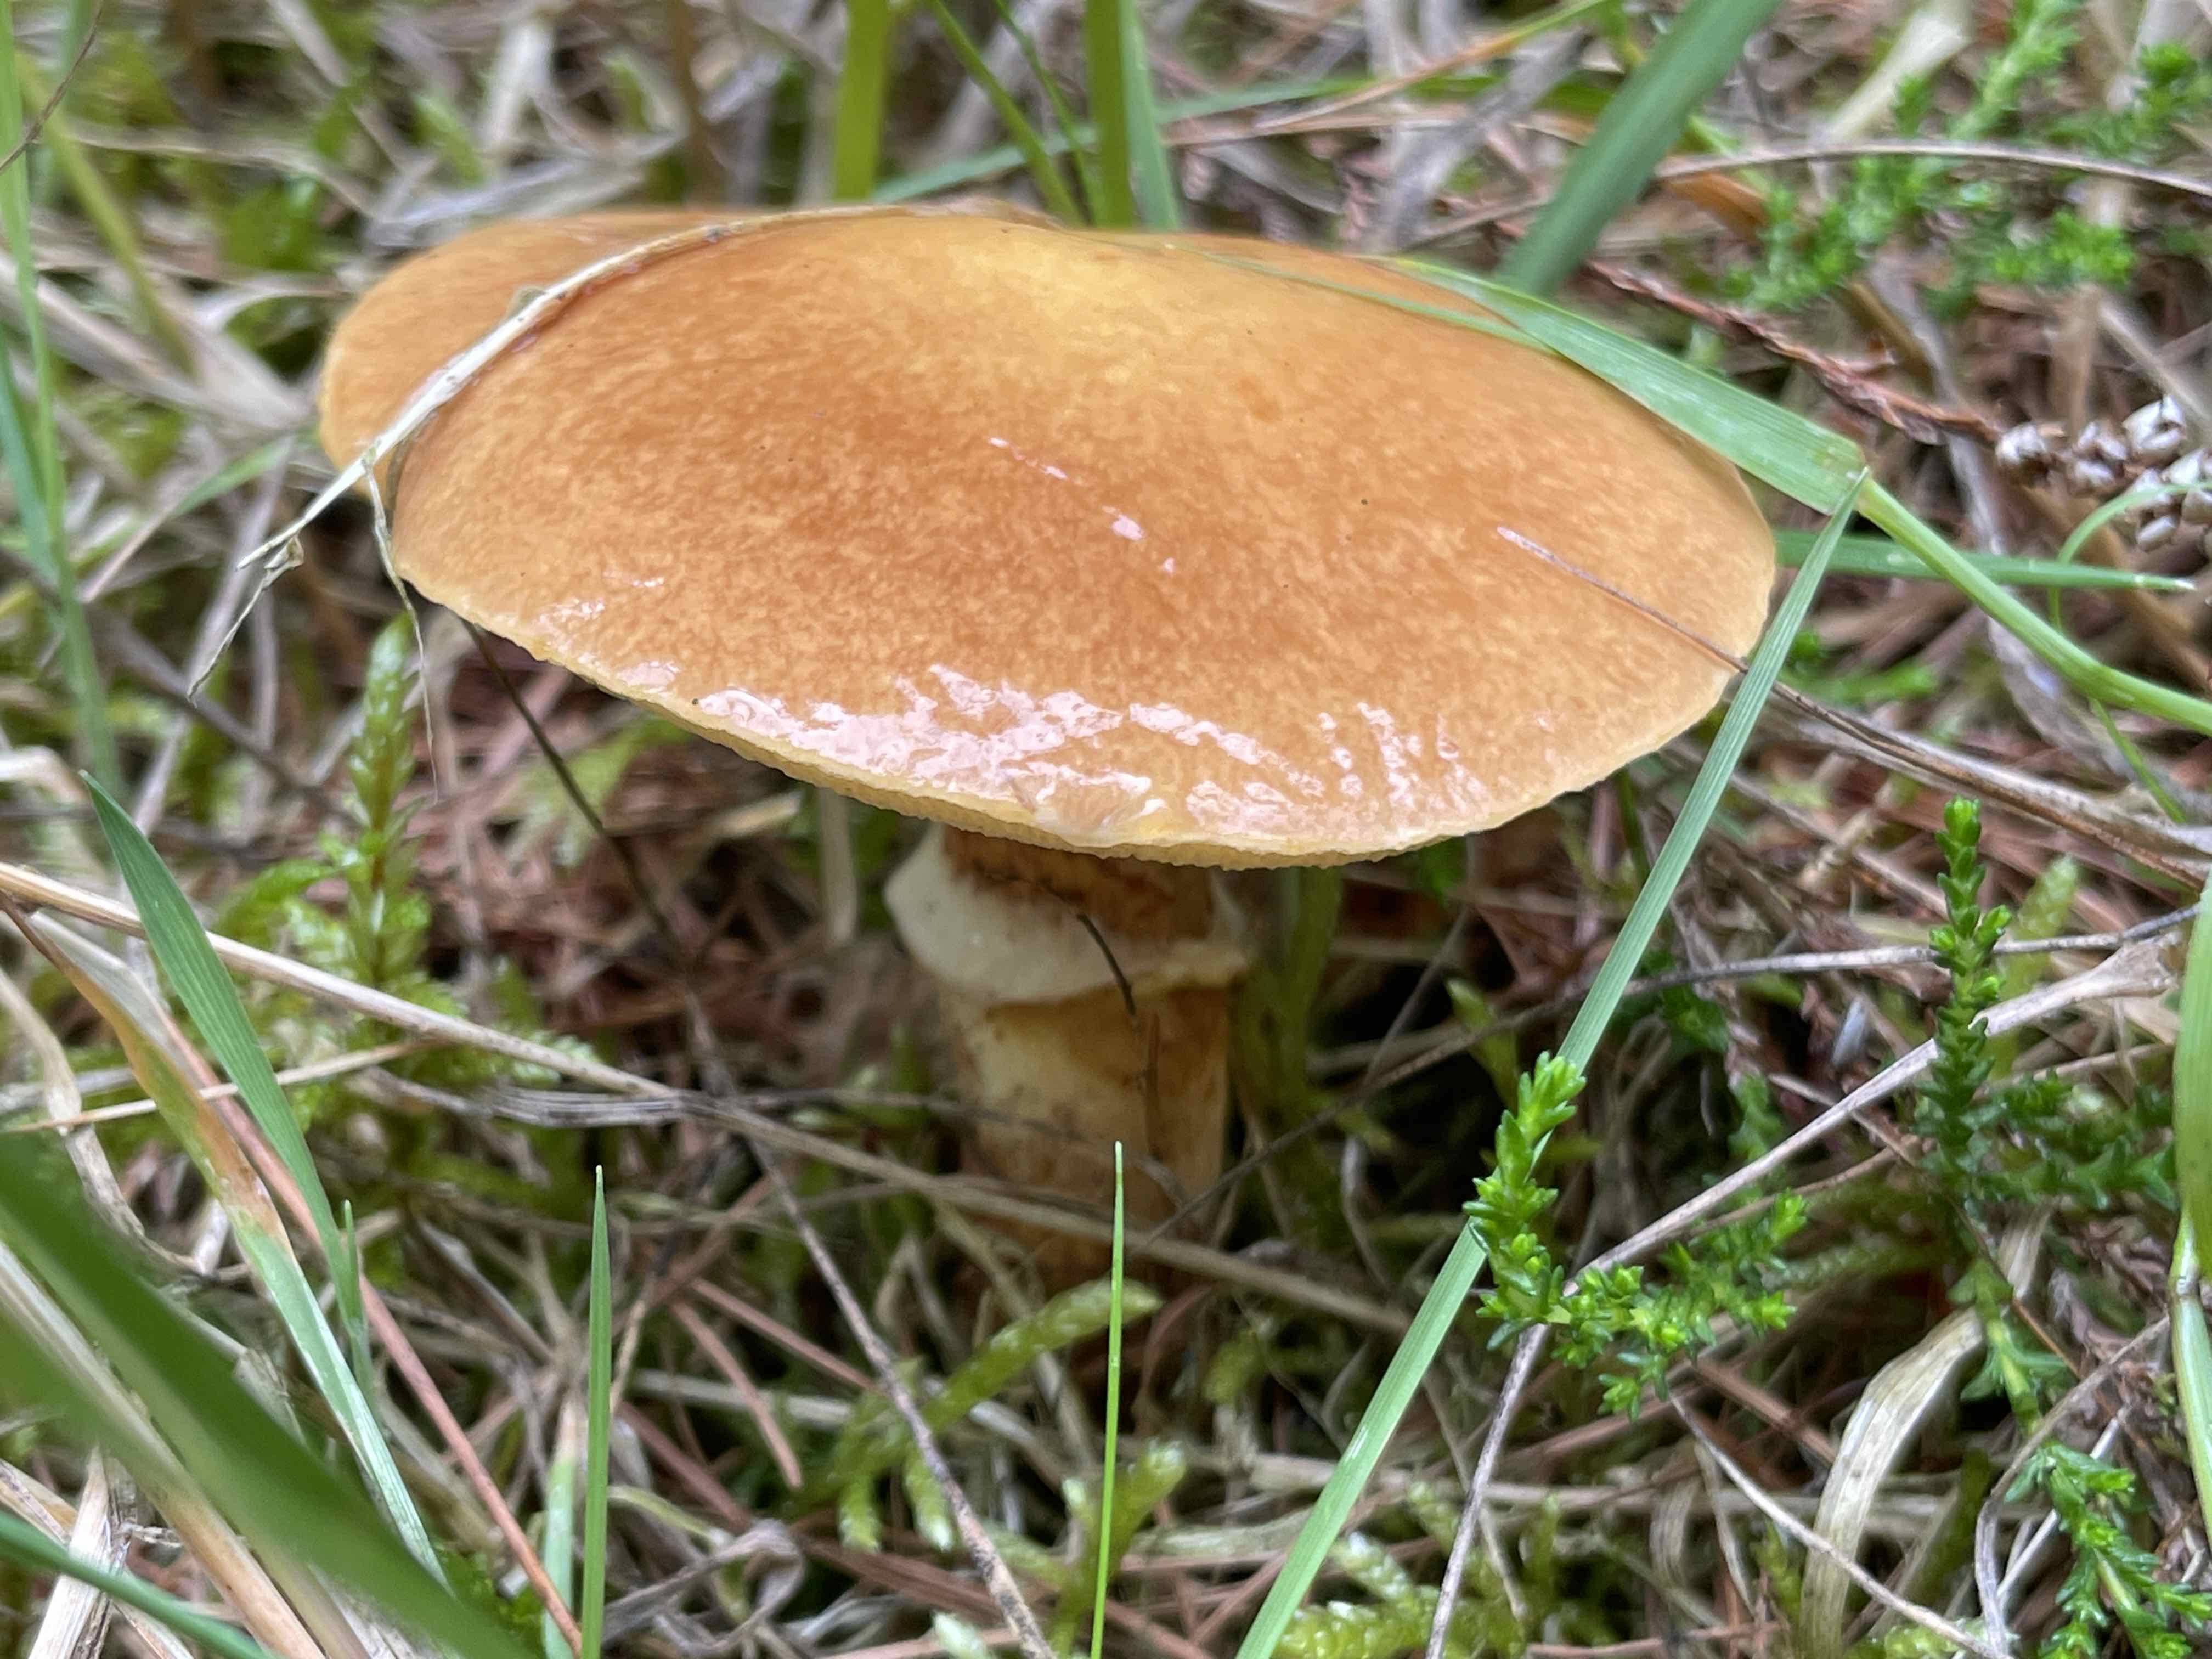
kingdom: Fungi
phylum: Basidiomycota
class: Agaricomycetes
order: Boletales
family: Suillaceae
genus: Suillus
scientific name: Suillus grevillei
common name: lærke-slimrørhat
